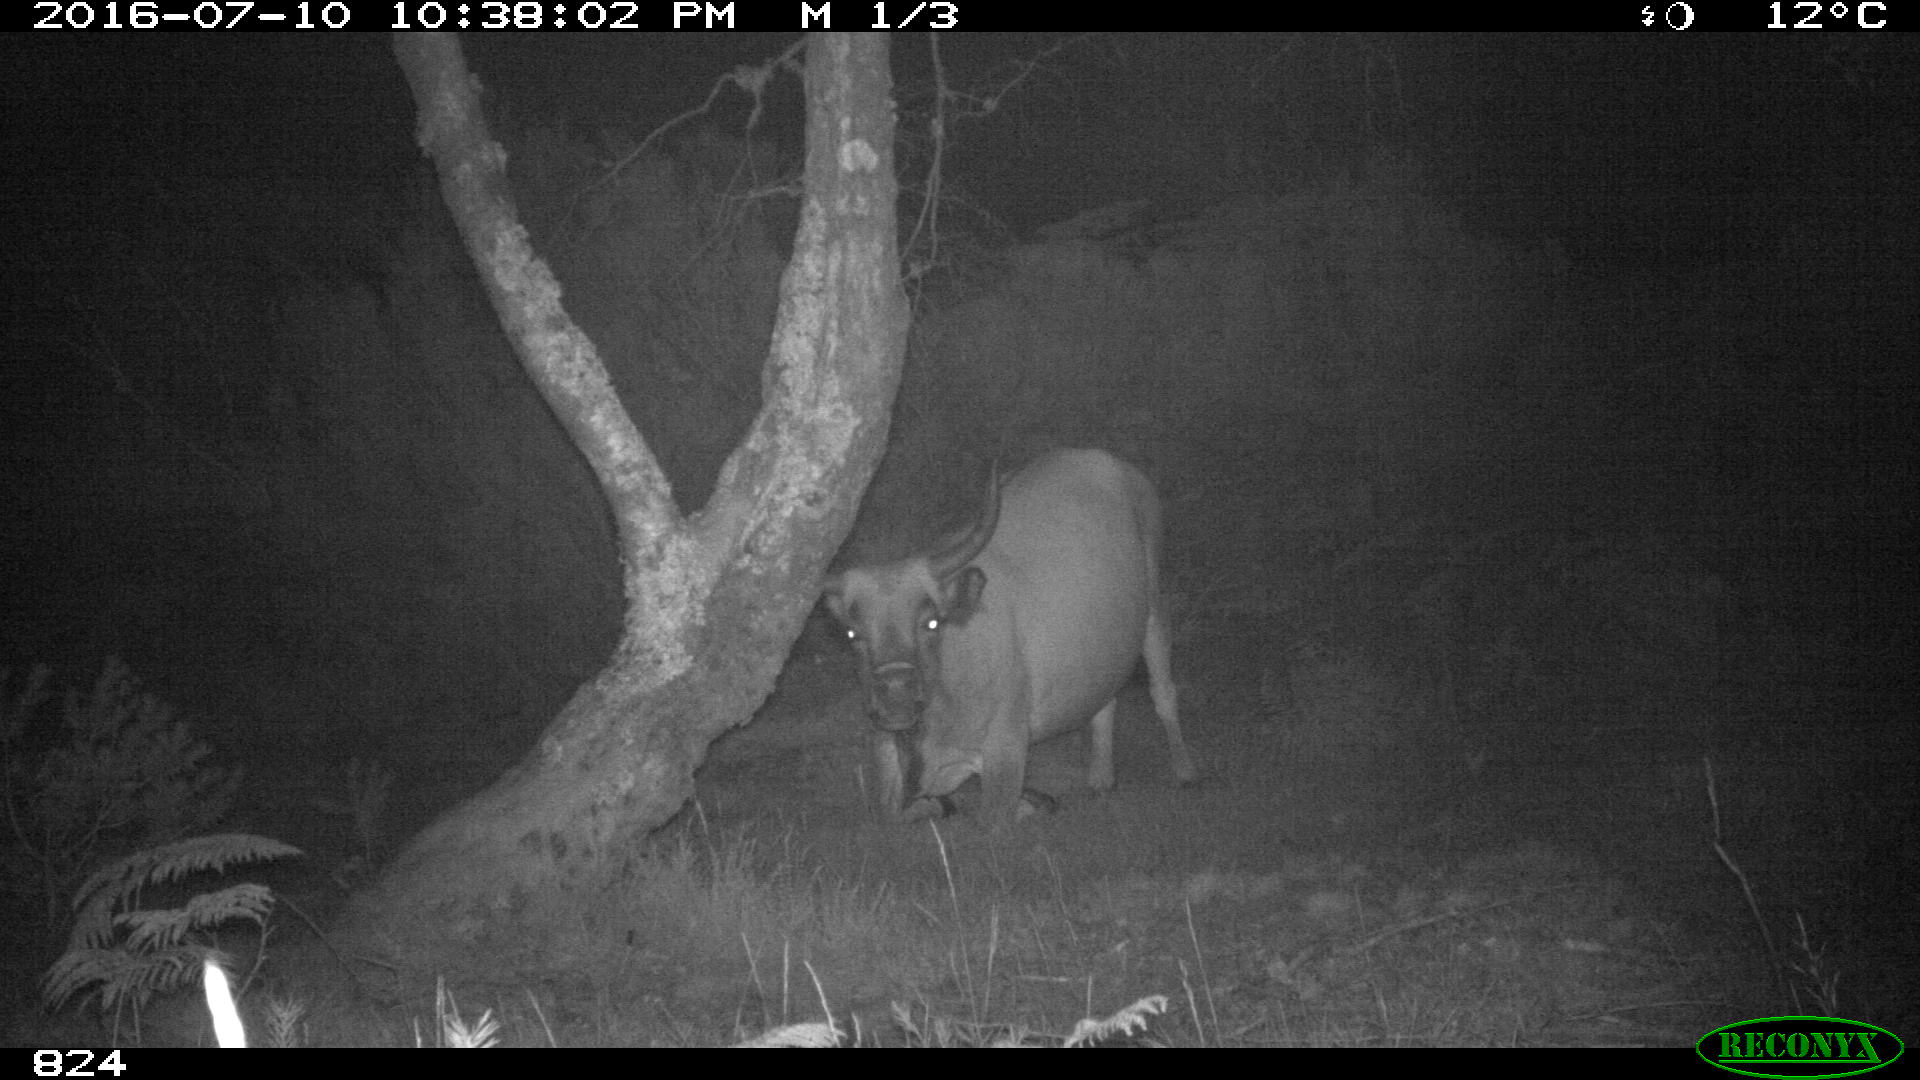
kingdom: Animalia
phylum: Chordata
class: Mammalia
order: Artiodactyla
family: Bovidae
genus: Bos
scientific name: Bos taurus
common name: Domesticated cattle
